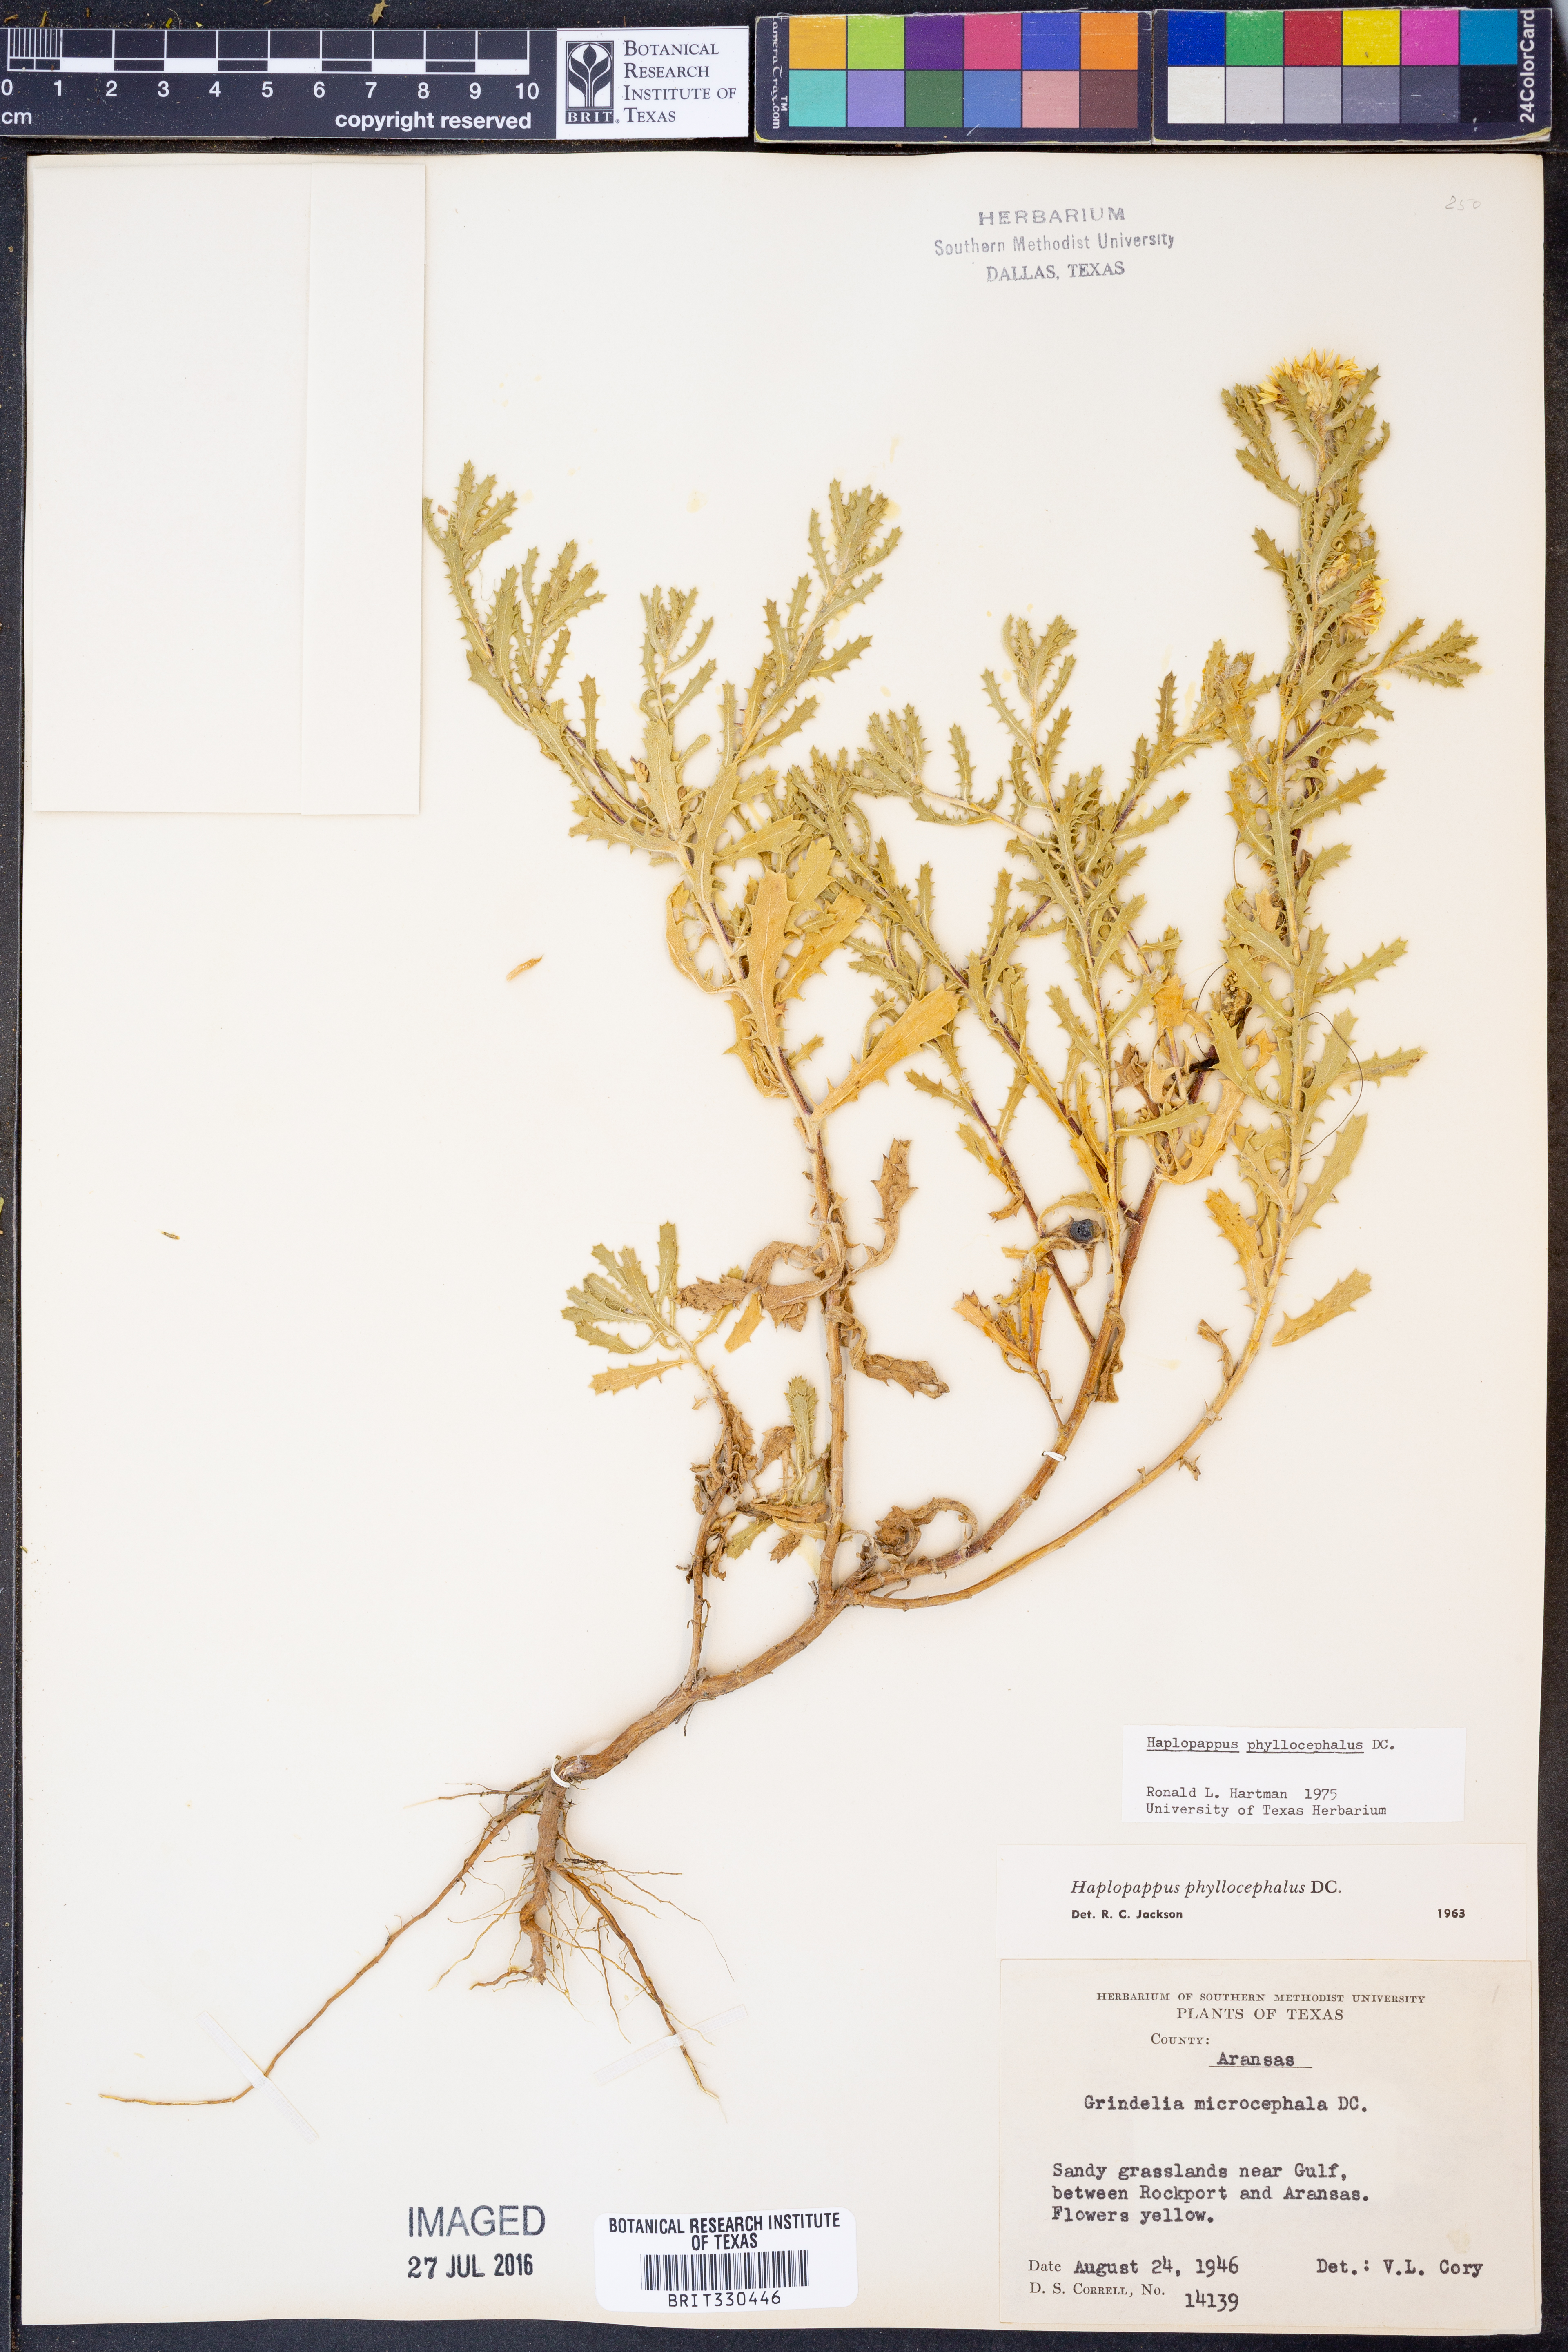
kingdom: Plantae
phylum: Tracheophyta
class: Magnoliopsida
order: Asterales
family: Asteraceae
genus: Rayjacksonia
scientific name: Rayjacksonia phyllocephala
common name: Gulf coast camphor daisy
